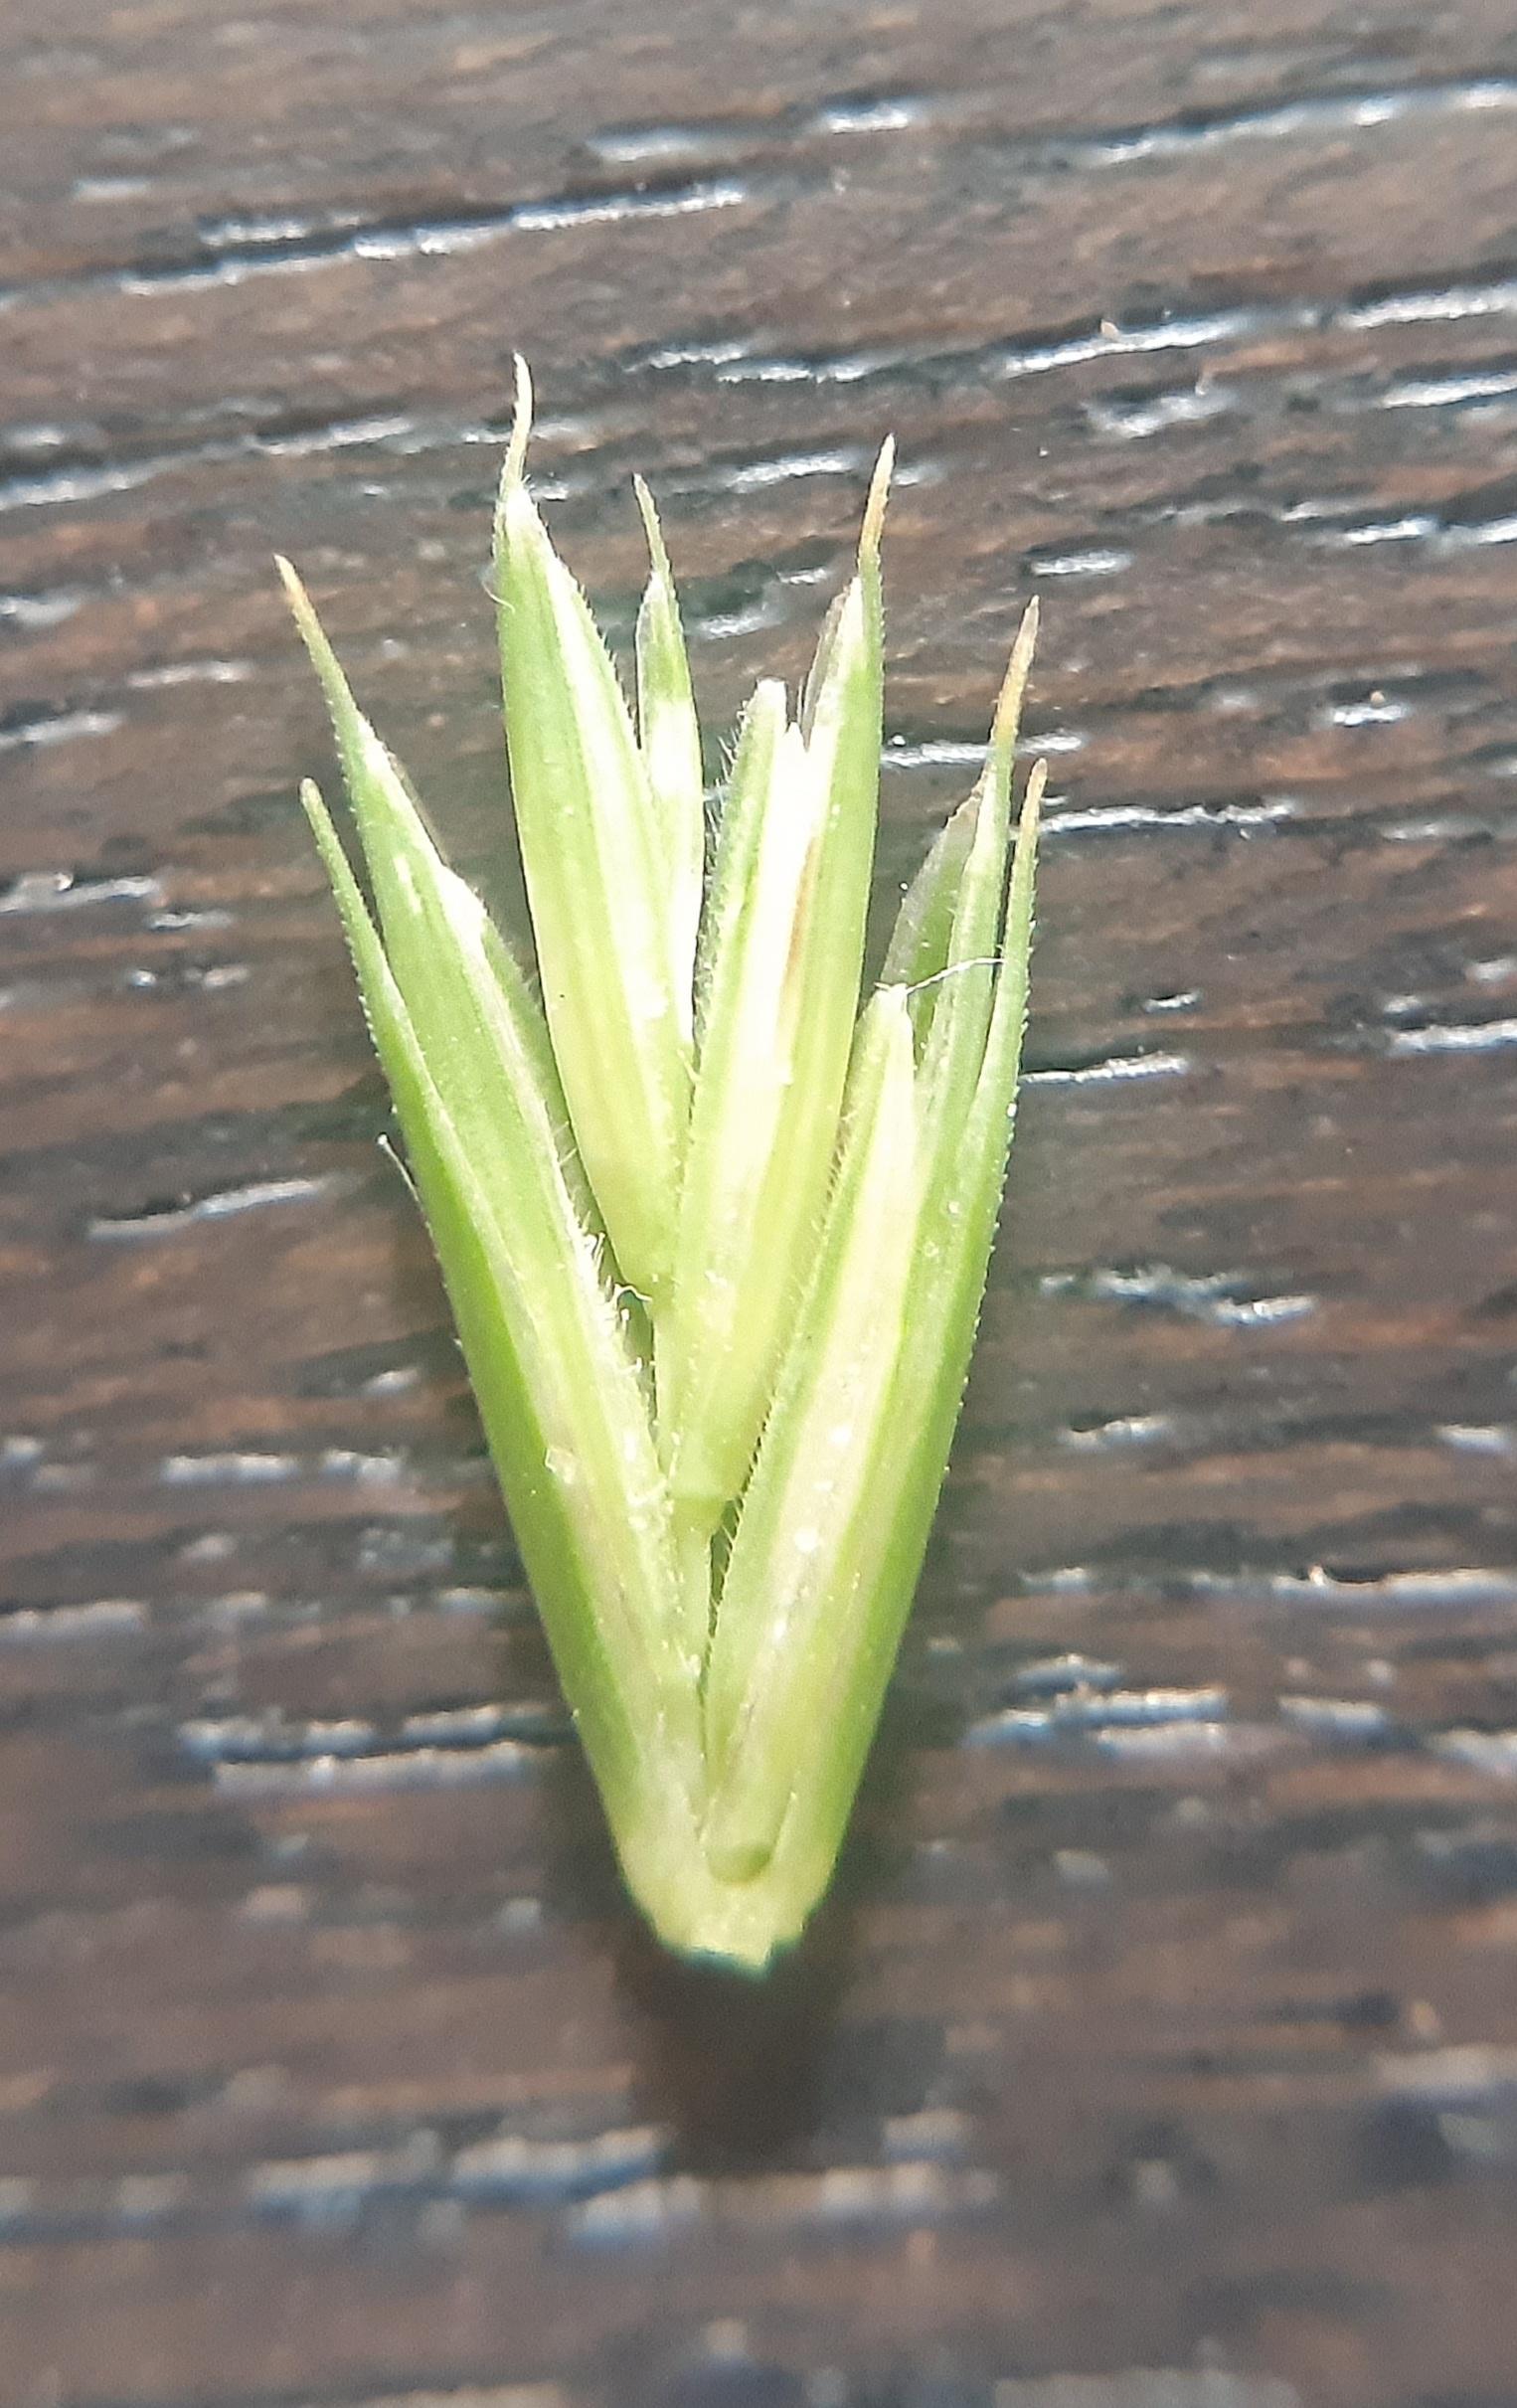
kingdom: Plantae
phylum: Tracheophyta
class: Liliopsida
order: Poales
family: Poaceae
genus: Elymus
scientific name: Elymus repens
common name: Almindelig kvik
